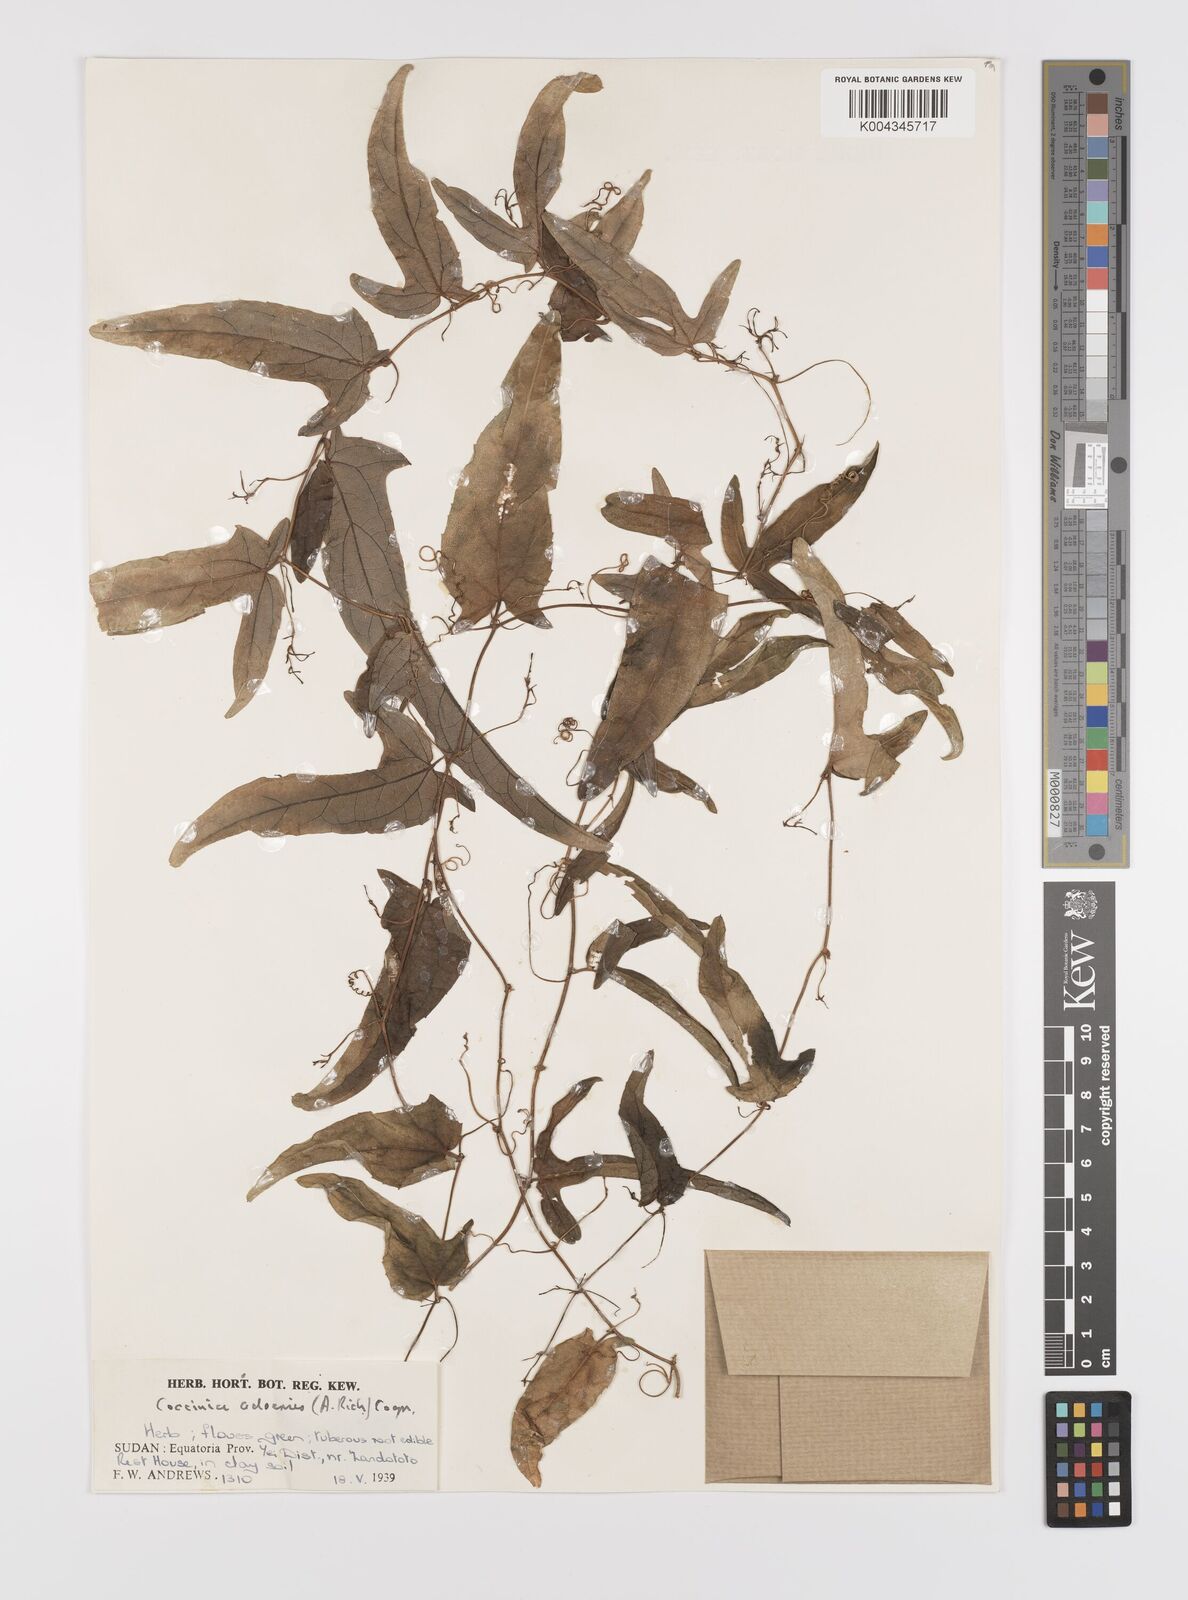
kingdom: Plantae
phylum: Tracheophyta
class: Magnoliopsida
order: Cucurbitales
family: Cucurbitaceae
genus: Coccinia
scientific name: Coccinia adoensis
